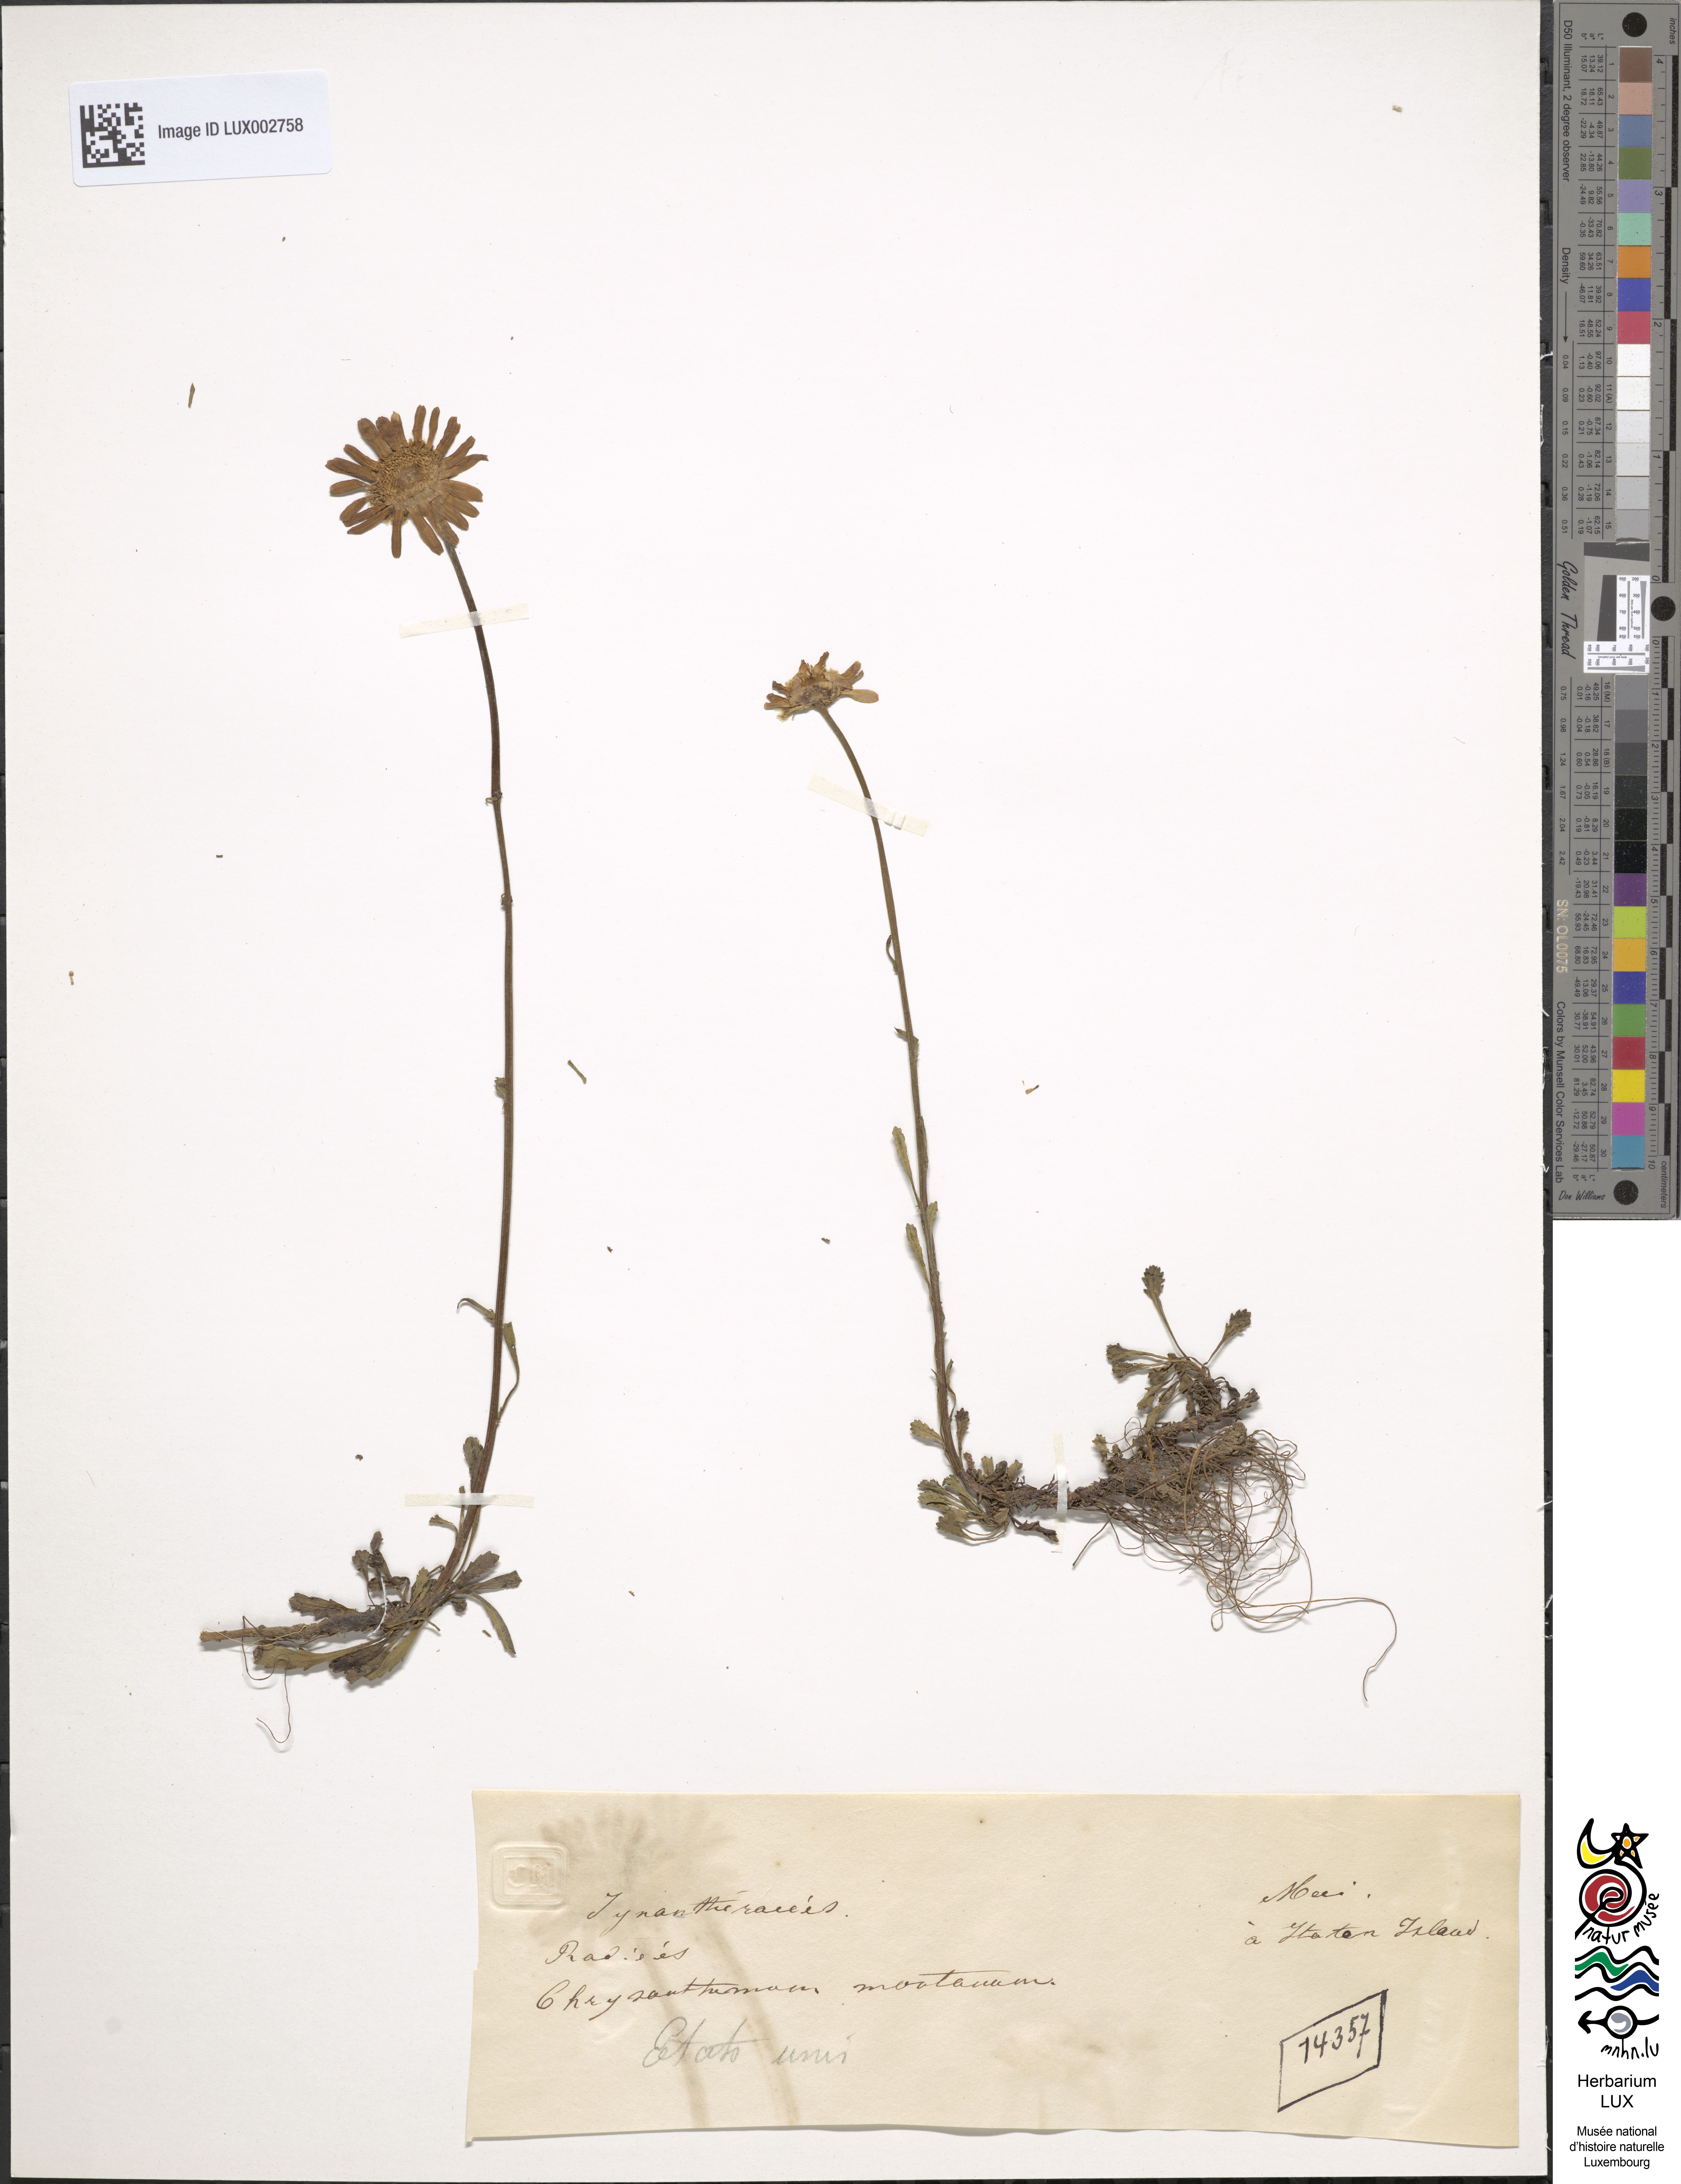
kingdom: Plantae
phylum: Tracheophyta
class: Magnoliopsida
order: Asterales
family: Asteraceae
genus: Leucanthemum
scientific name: Leucanthemum heterophyllum
